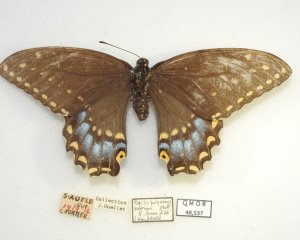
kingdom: Animalia
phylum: Arthropoda
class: Insecta
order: Lepidoptera
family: Papilionidae
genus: Papilio
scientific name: Papilio polyxenes
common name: Black Swallowtail
